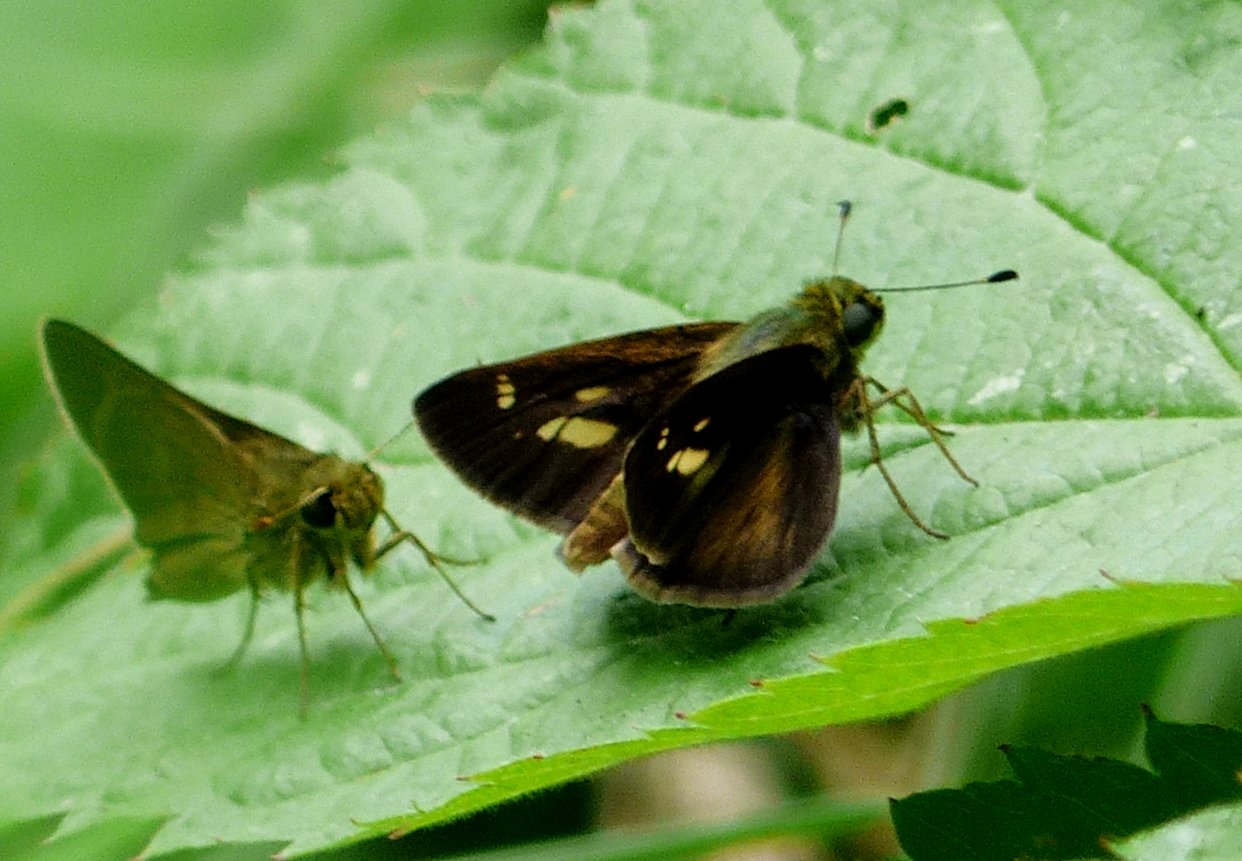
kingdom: Animalia
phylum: Arthropoda
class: Insecta
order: Lepidoptera
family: Hesperiidae
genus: Vernia
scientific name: Vernia verna
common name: Little Glassywing
